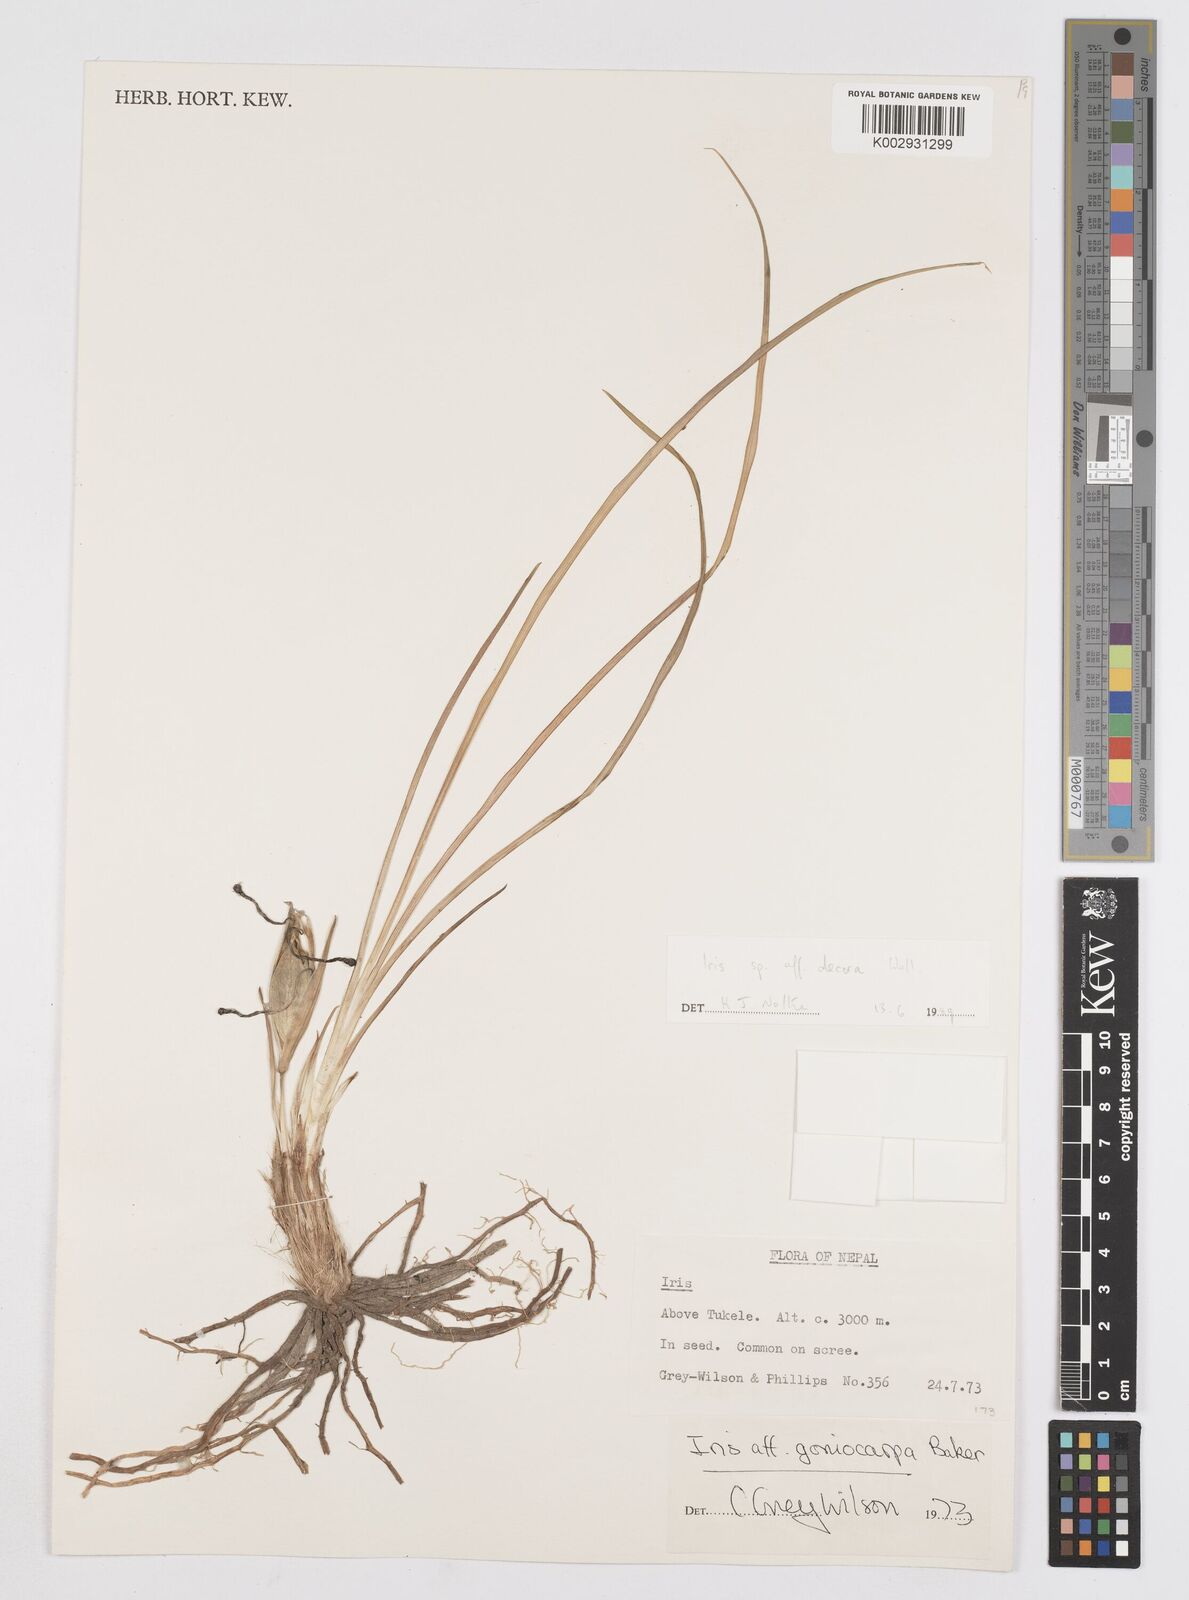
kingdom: Plantae
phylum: Tracheophyta
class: Liliopsida
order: Asparagales
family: Iridaceae
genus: Iris
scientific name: Iris decora
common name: Nepal iris
